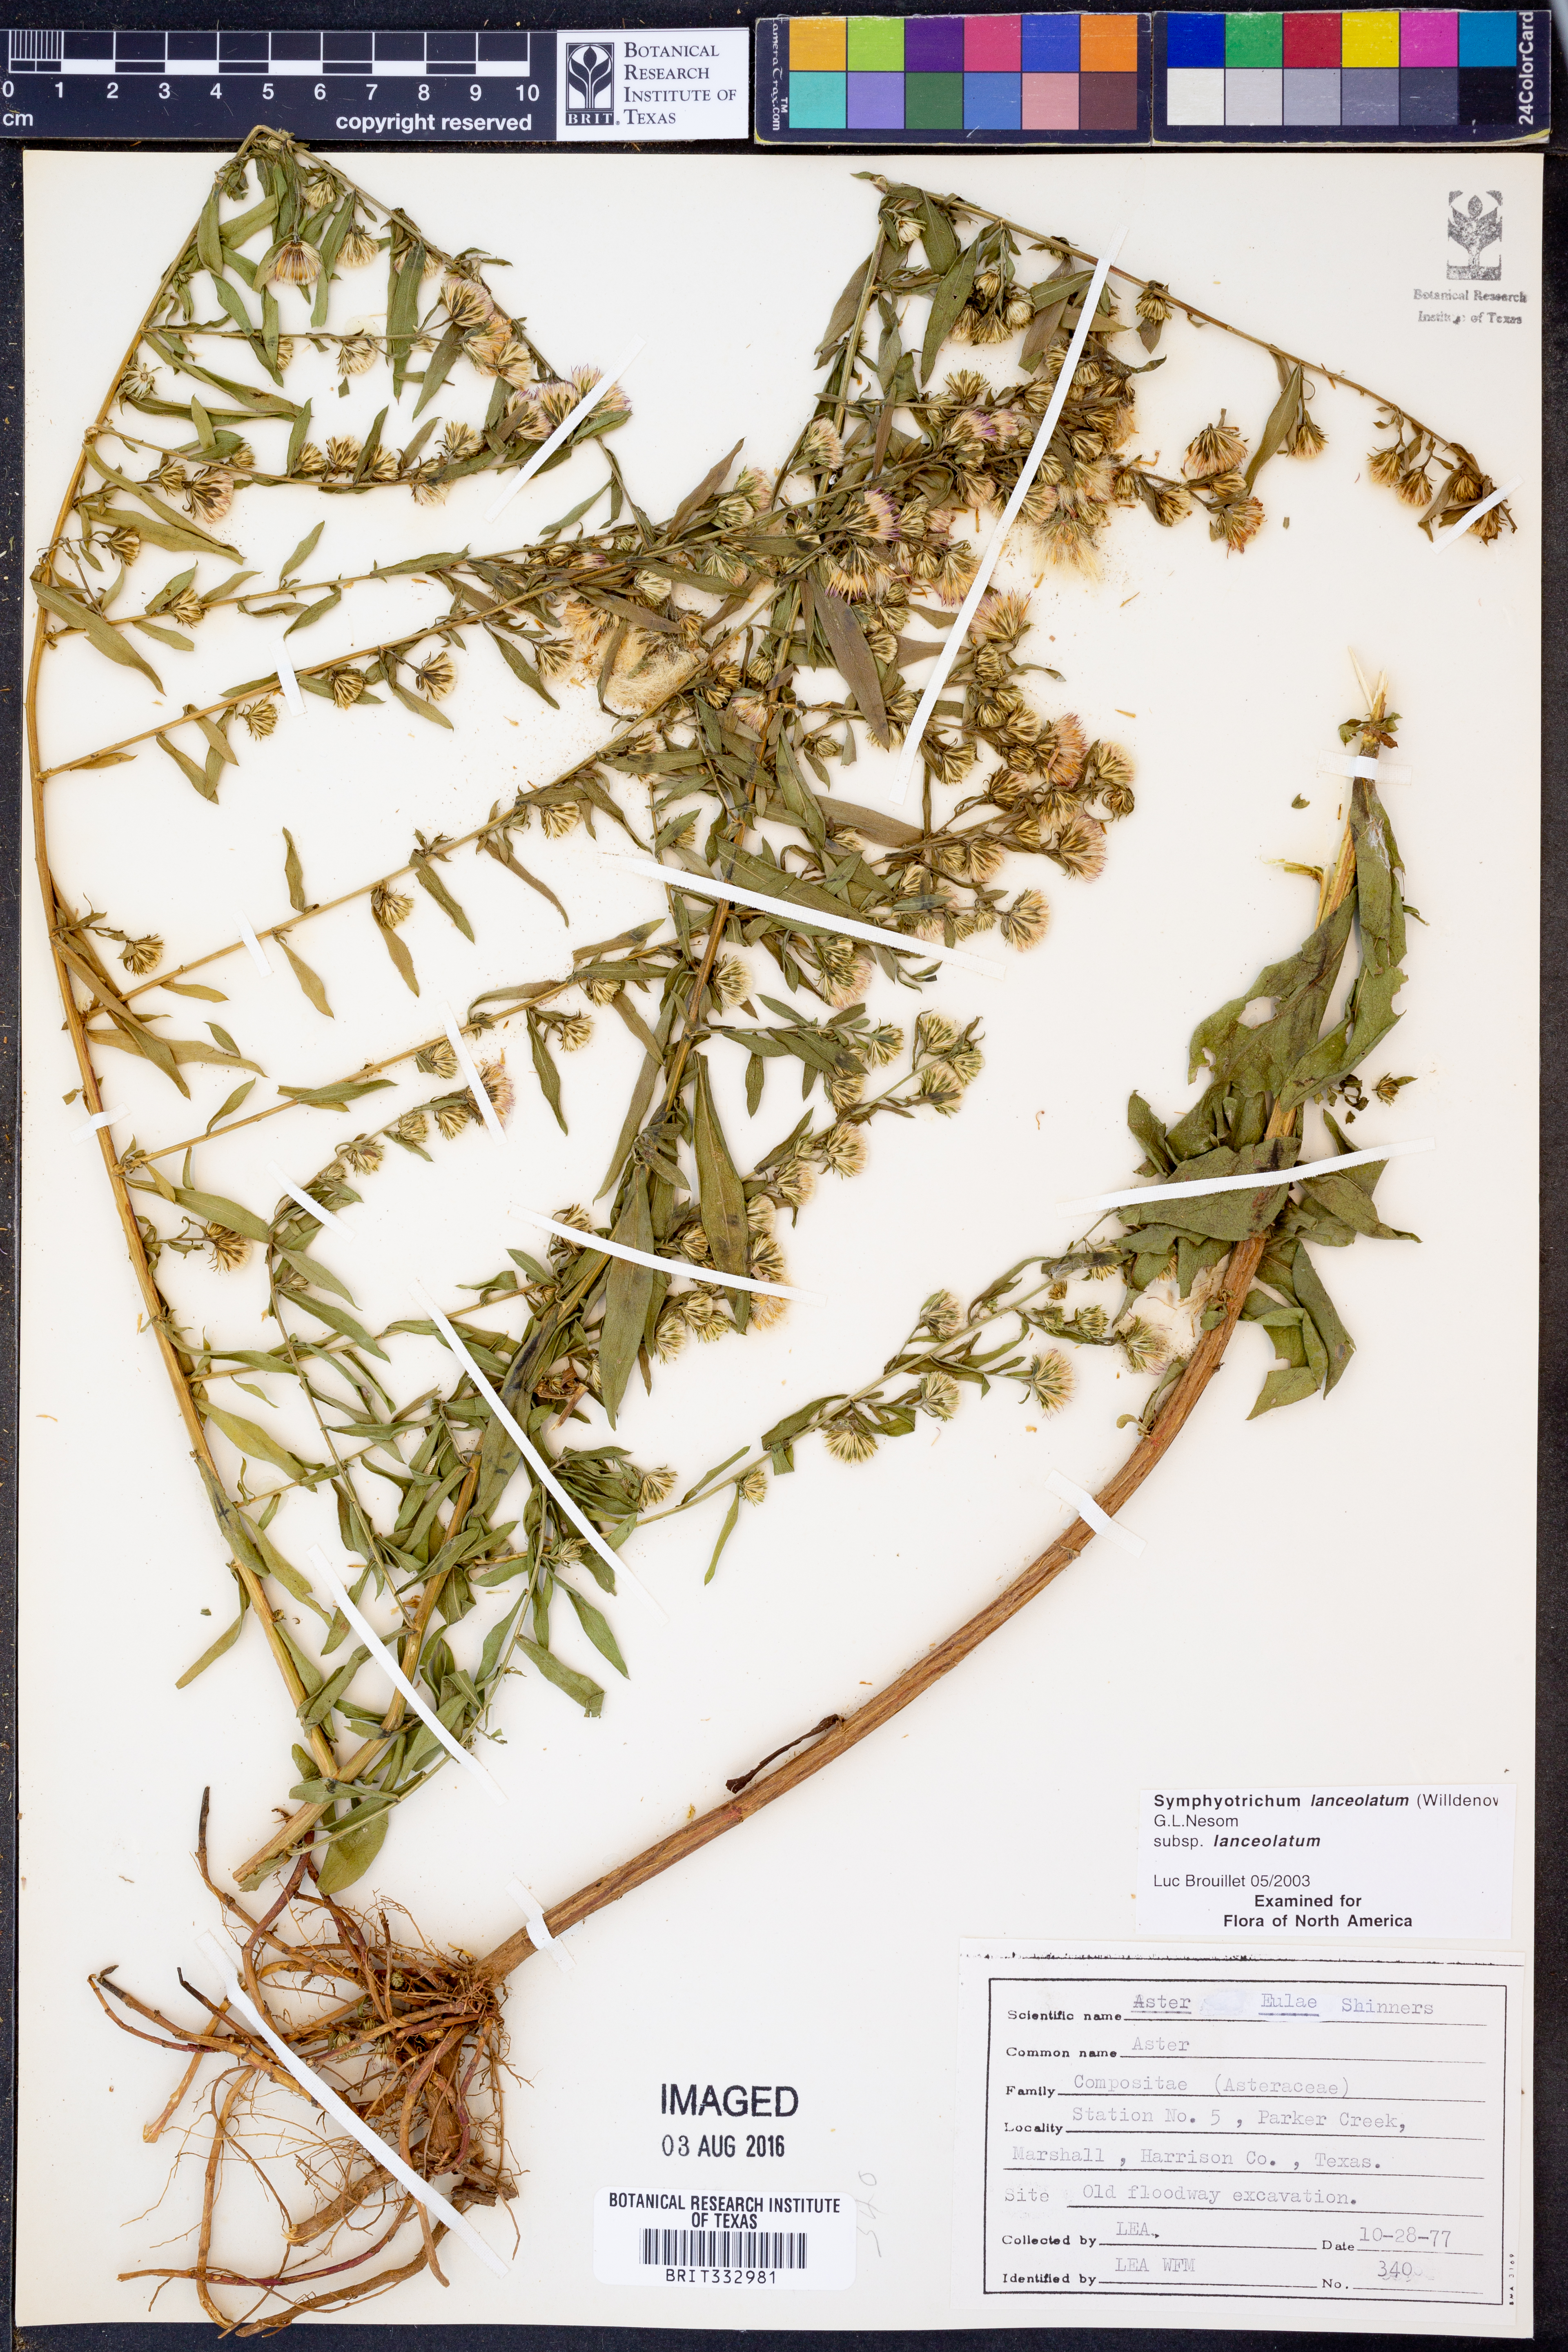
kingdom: Plantae
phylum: Tracheophyta
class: Magnoliopsida
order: Asterales
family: Asteraceae
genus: Symphyotrichum
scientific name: Symphyotrichum lanceolatum
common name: Panicled aster
